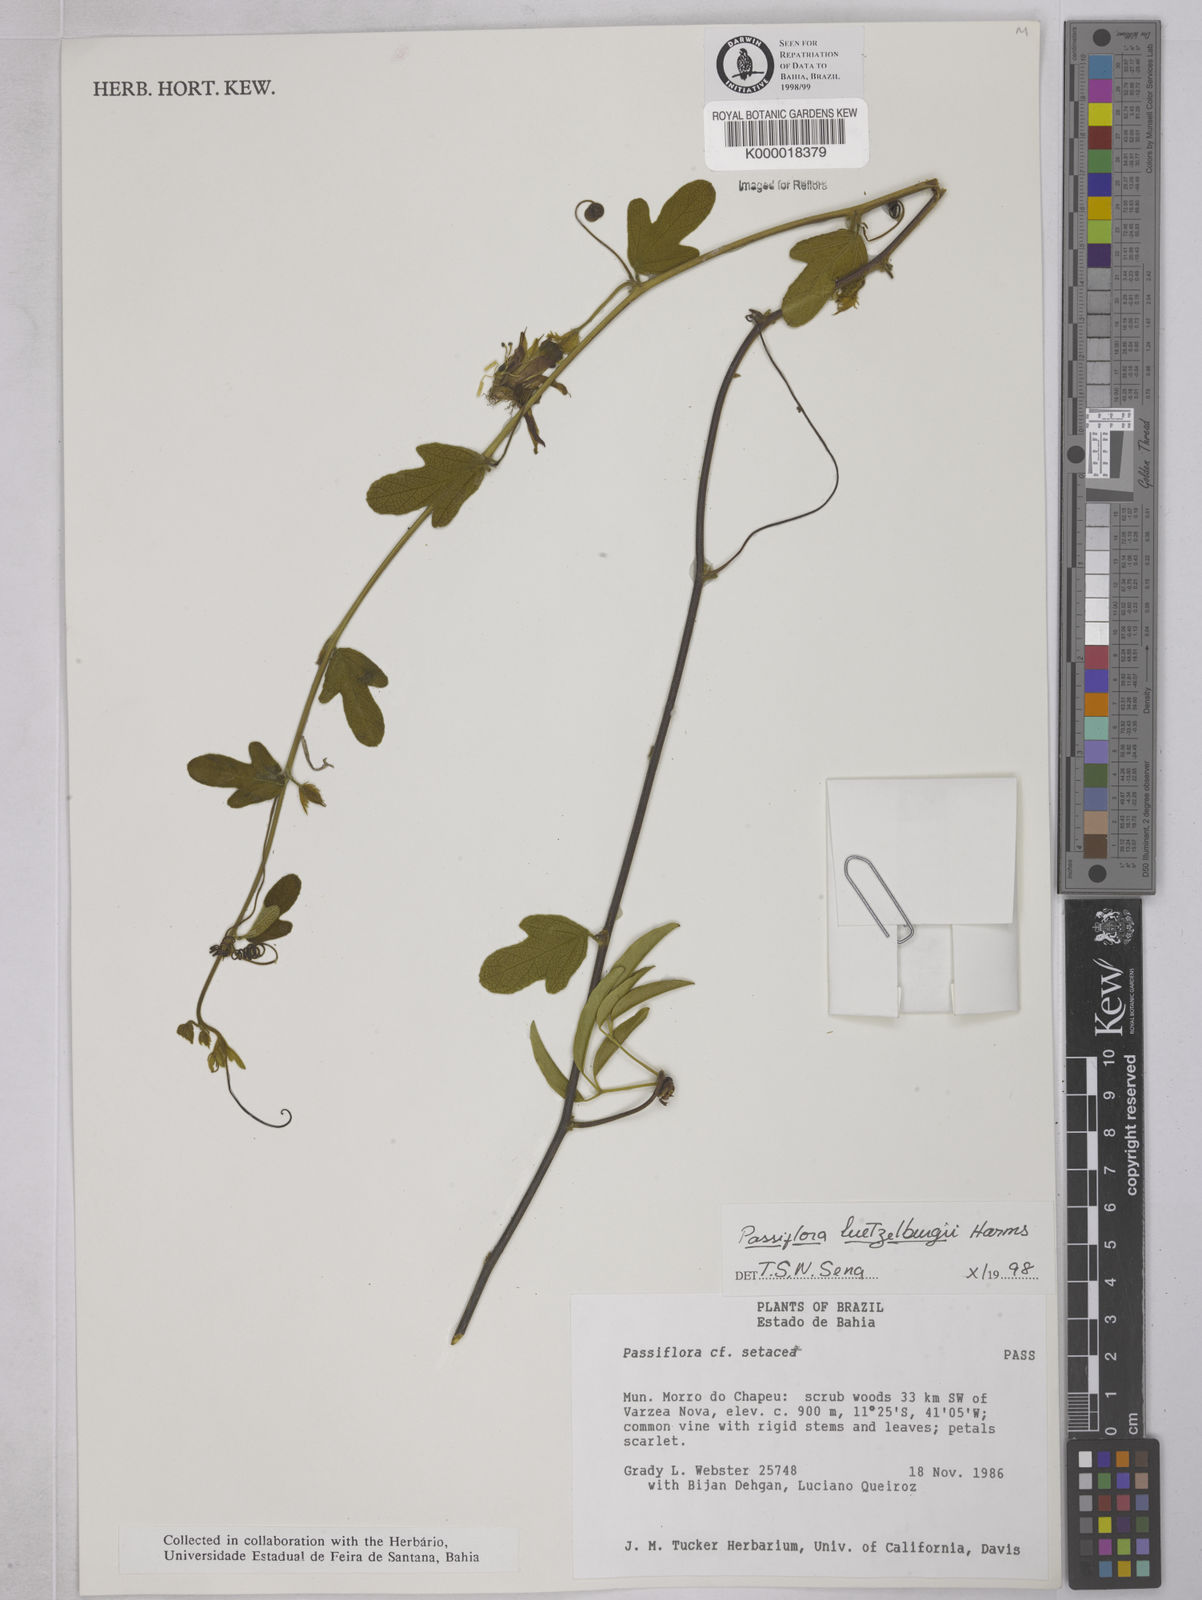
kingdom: Plantae
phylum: Tracheophyta
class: Magnoliopsida
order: Malpighiales
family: Passifloraceae
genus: Passiflora
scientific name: Passiflora luetzelburgii
